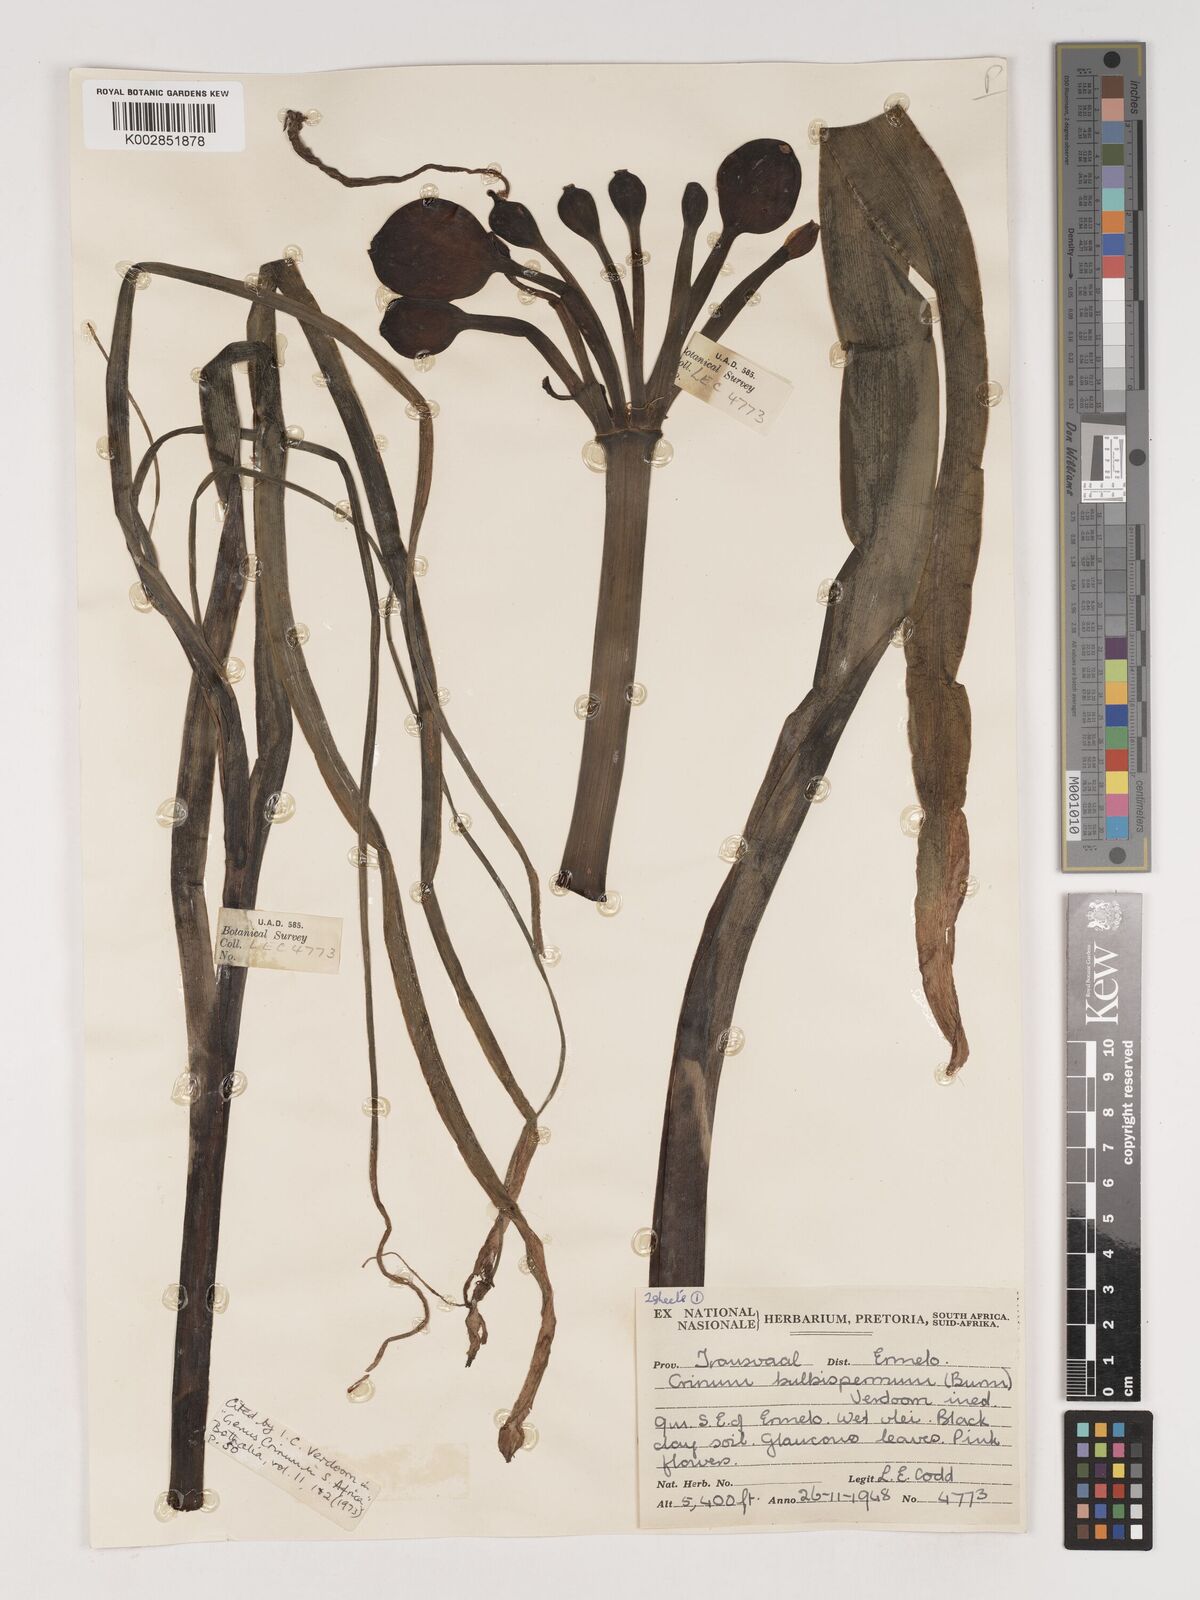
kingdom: Plantae
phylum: Tracheophyta
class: Liliopsida
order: Asparagales
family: Amaryllidaceae
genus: Crinum
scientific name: Crinum bulbispermum
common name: Hardy swamplily
